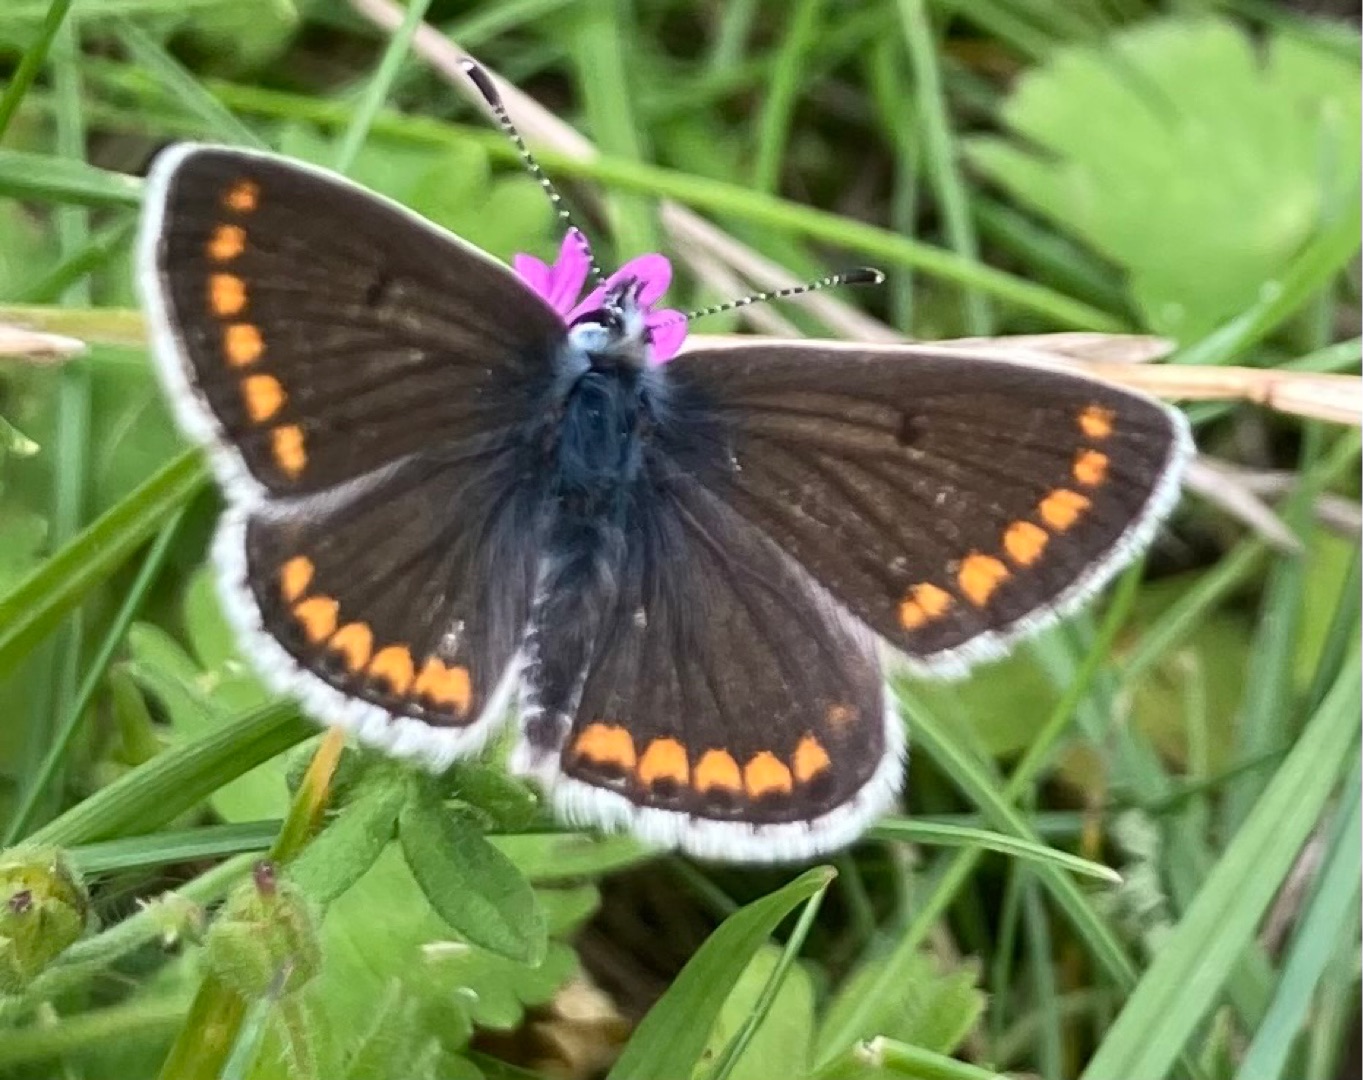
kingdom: Animalia
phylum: Arthropoda
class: Insecta
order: Lepidoptera
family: Lycaenidae
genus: Aricia
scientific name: Aricia agestis
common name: Rødplettet blåfugl
